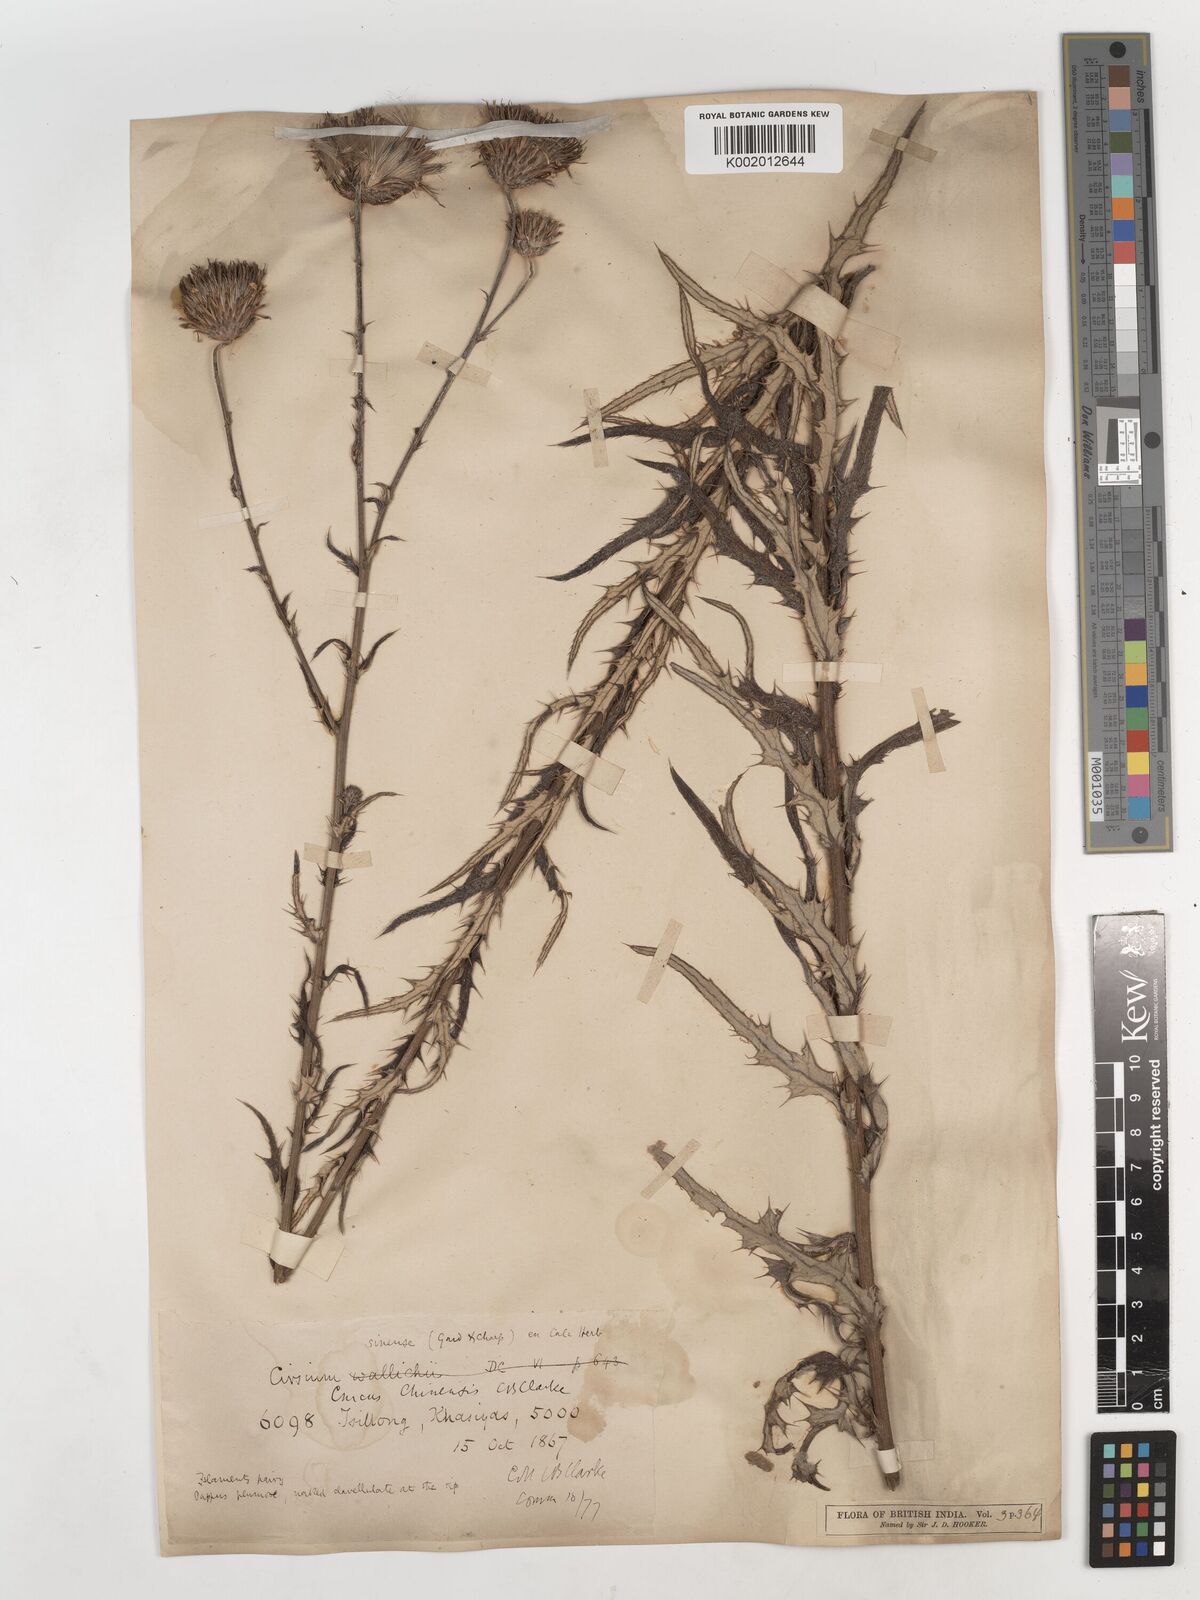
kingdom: Plantae
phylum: Tracheophyta
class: Magnoliopsida
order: Asterales
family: Asteraceae
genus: Cirsium
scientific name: Cirsium chinense
